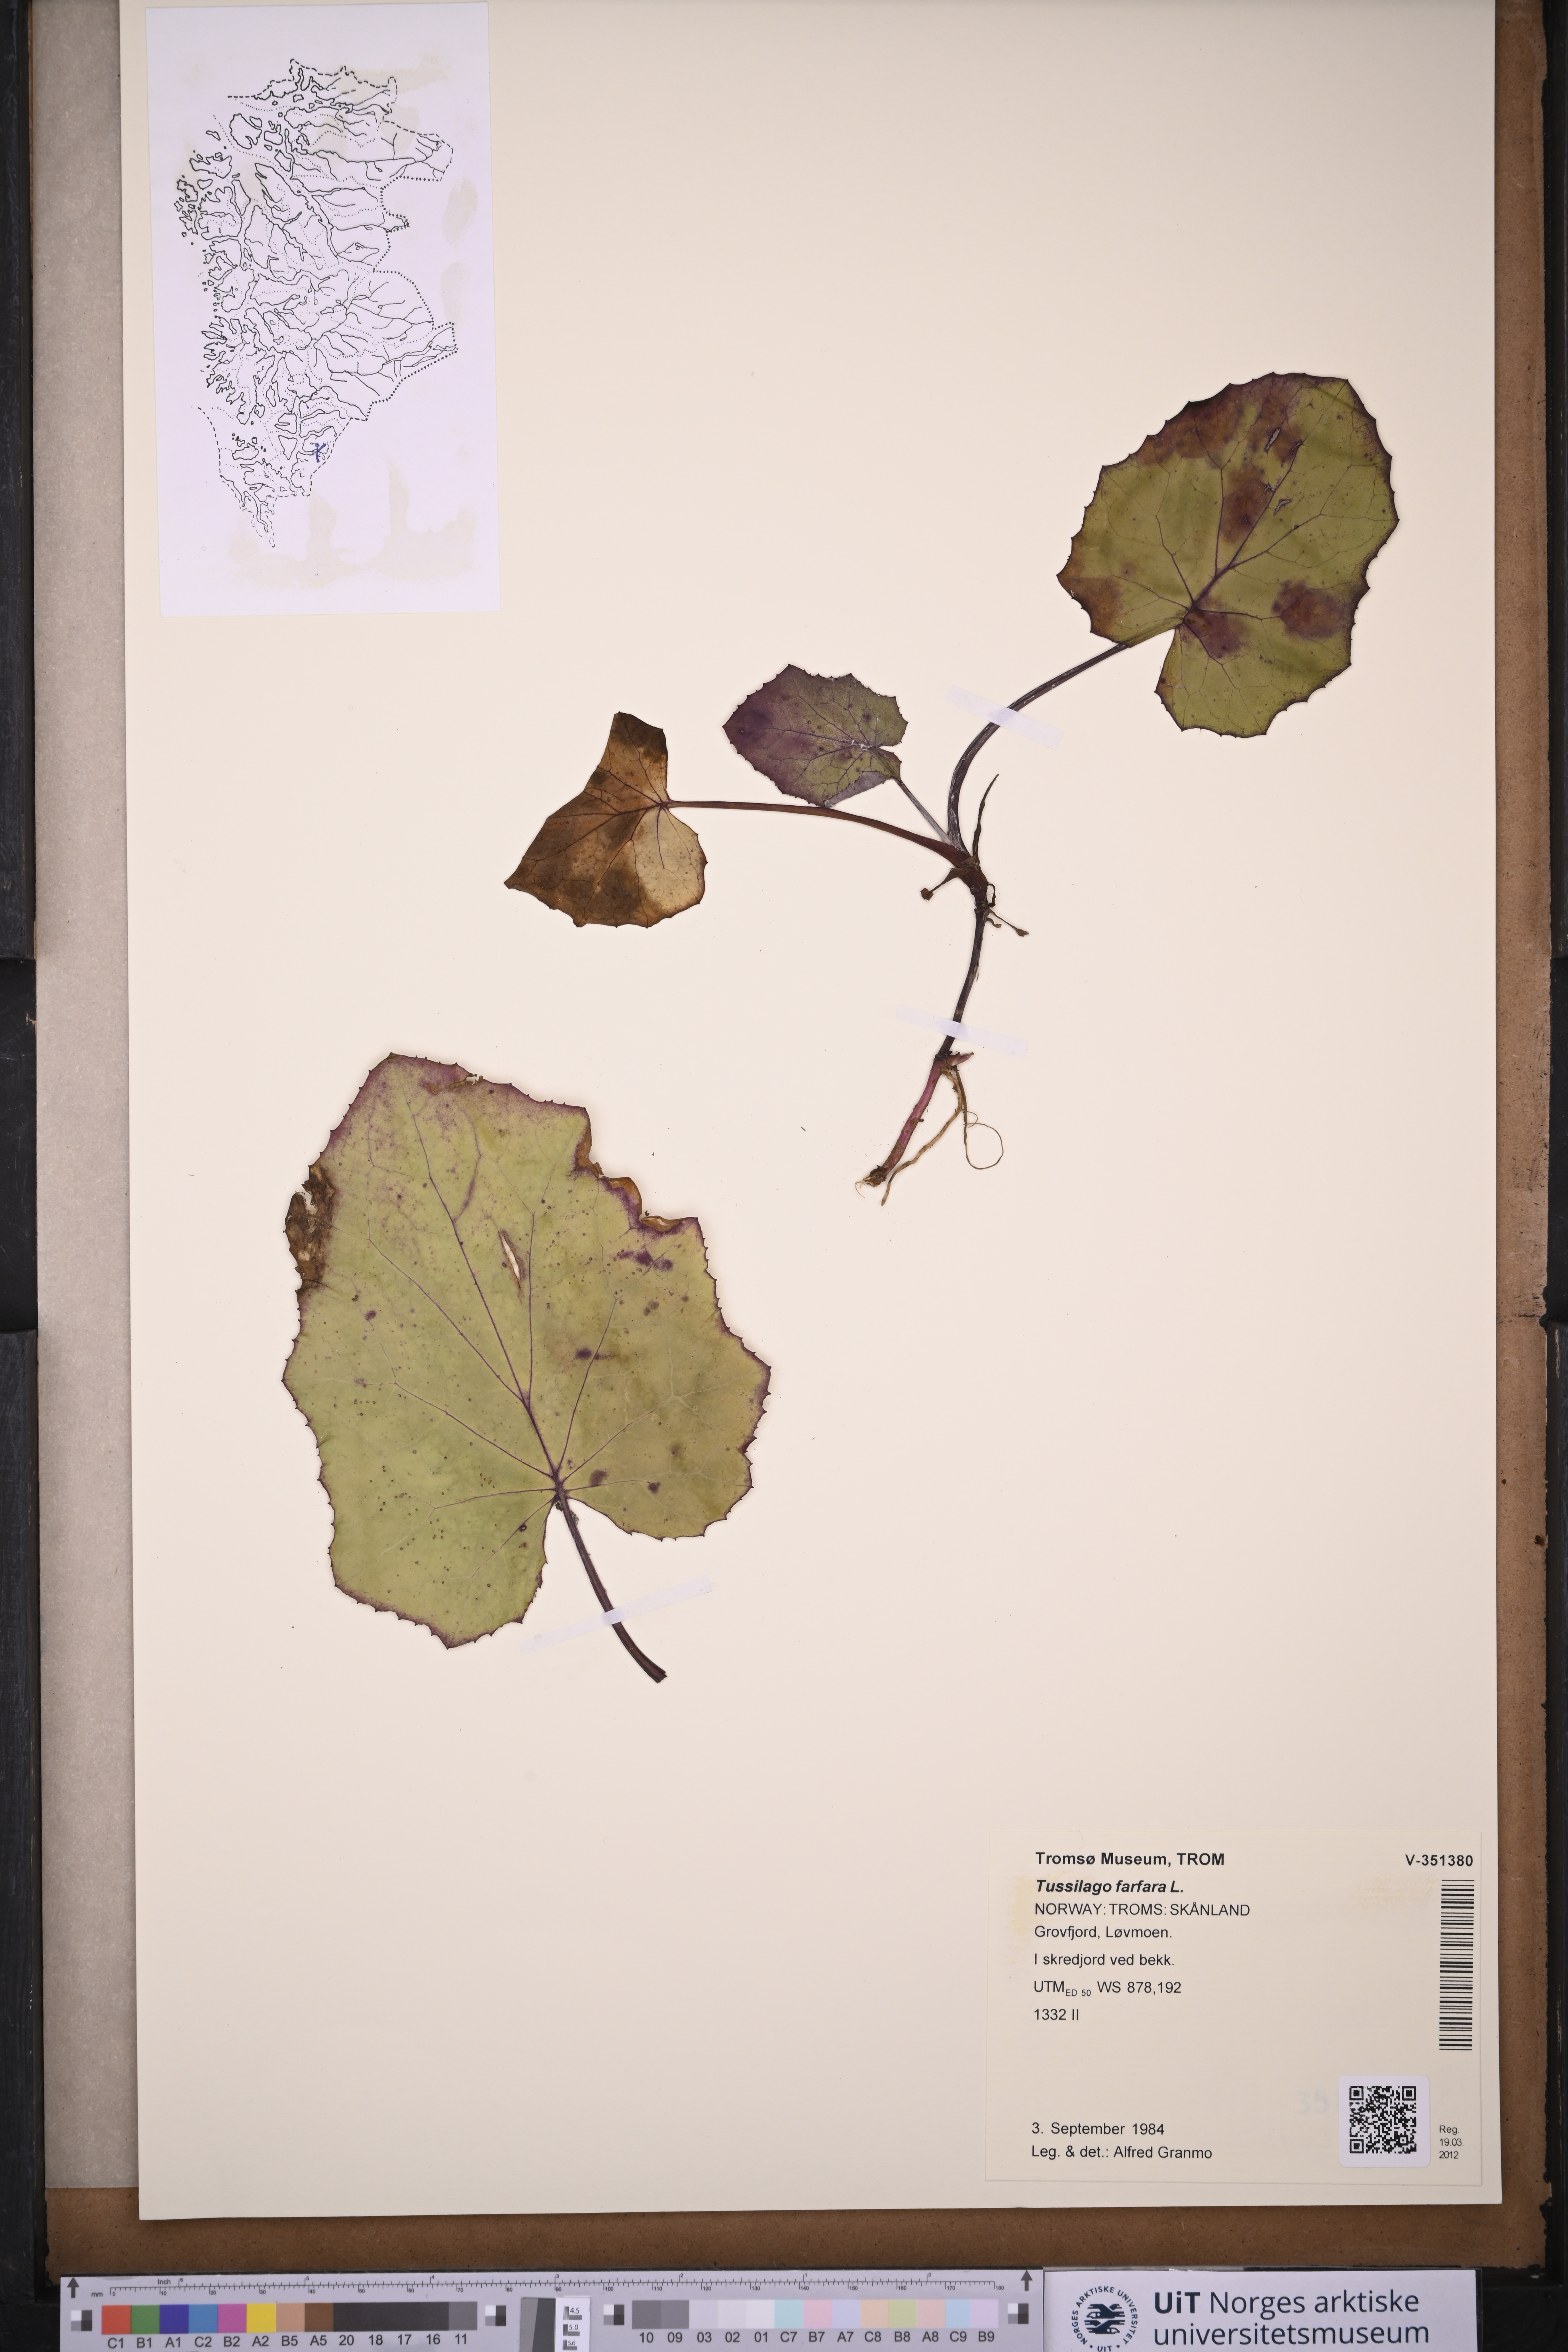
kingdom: Plantae
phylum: Tracheophyta
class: Magnoliopsida
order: Asterales
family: Asteraceae
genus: Tussilago
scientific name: Tussilago farfara
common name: Coltsfoot
